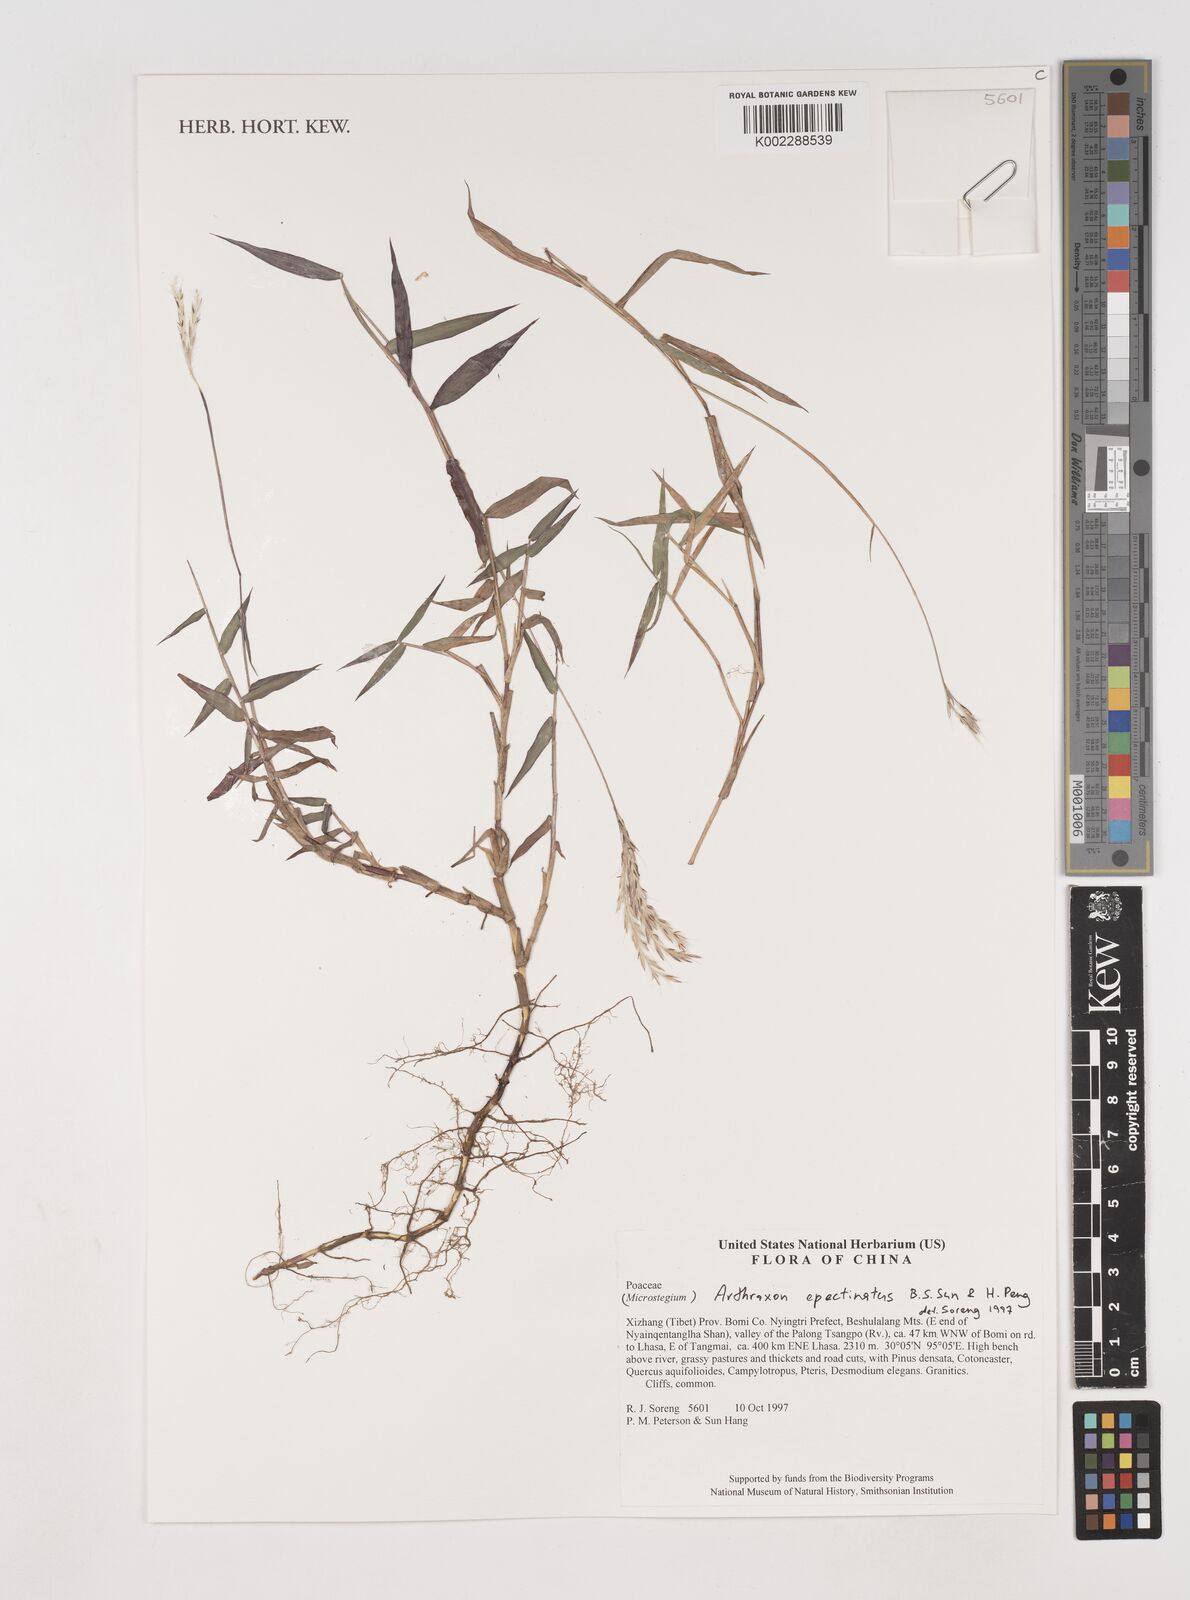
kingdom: Plantae
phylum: Tracheophyta
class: Liliopsida
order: Poales
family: Poaceae
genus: Arthraxon
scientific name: Arthraxon epectinatus
